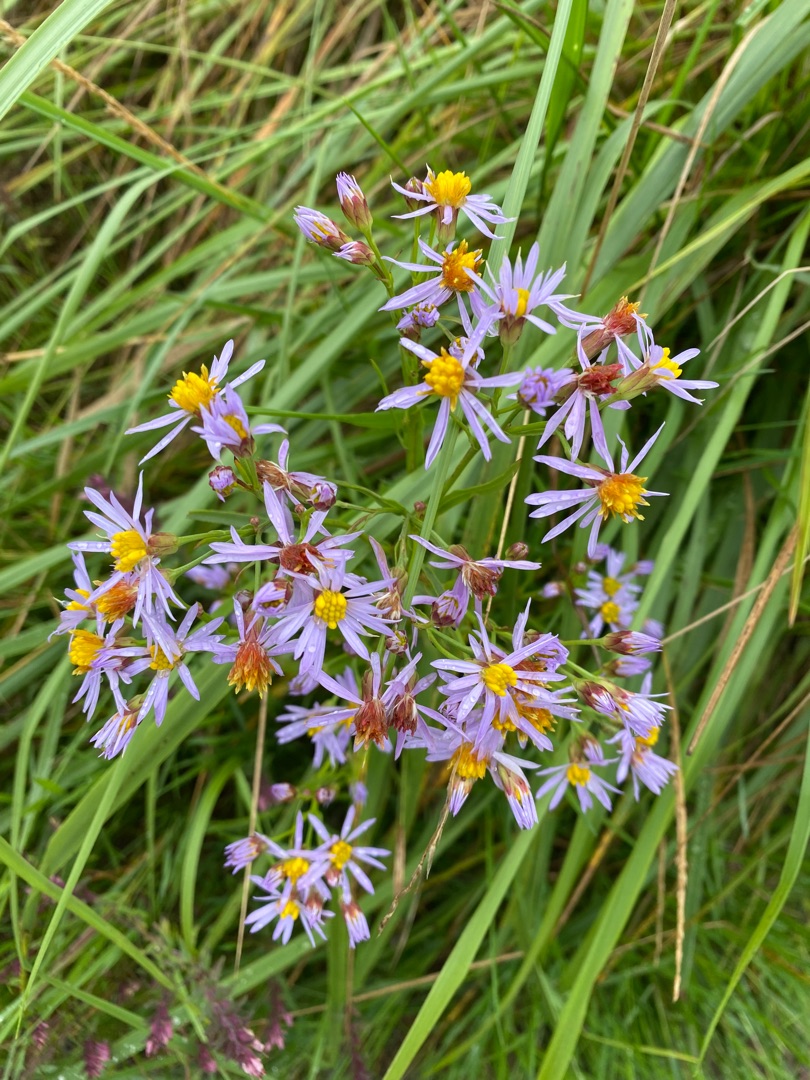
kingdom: Plantae
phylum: Tracheophyta
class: Magnoliopsida
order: Asterales
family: Asteraceae
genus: Tripolium
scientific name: Tripolium pannonicum
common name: Strandasters
